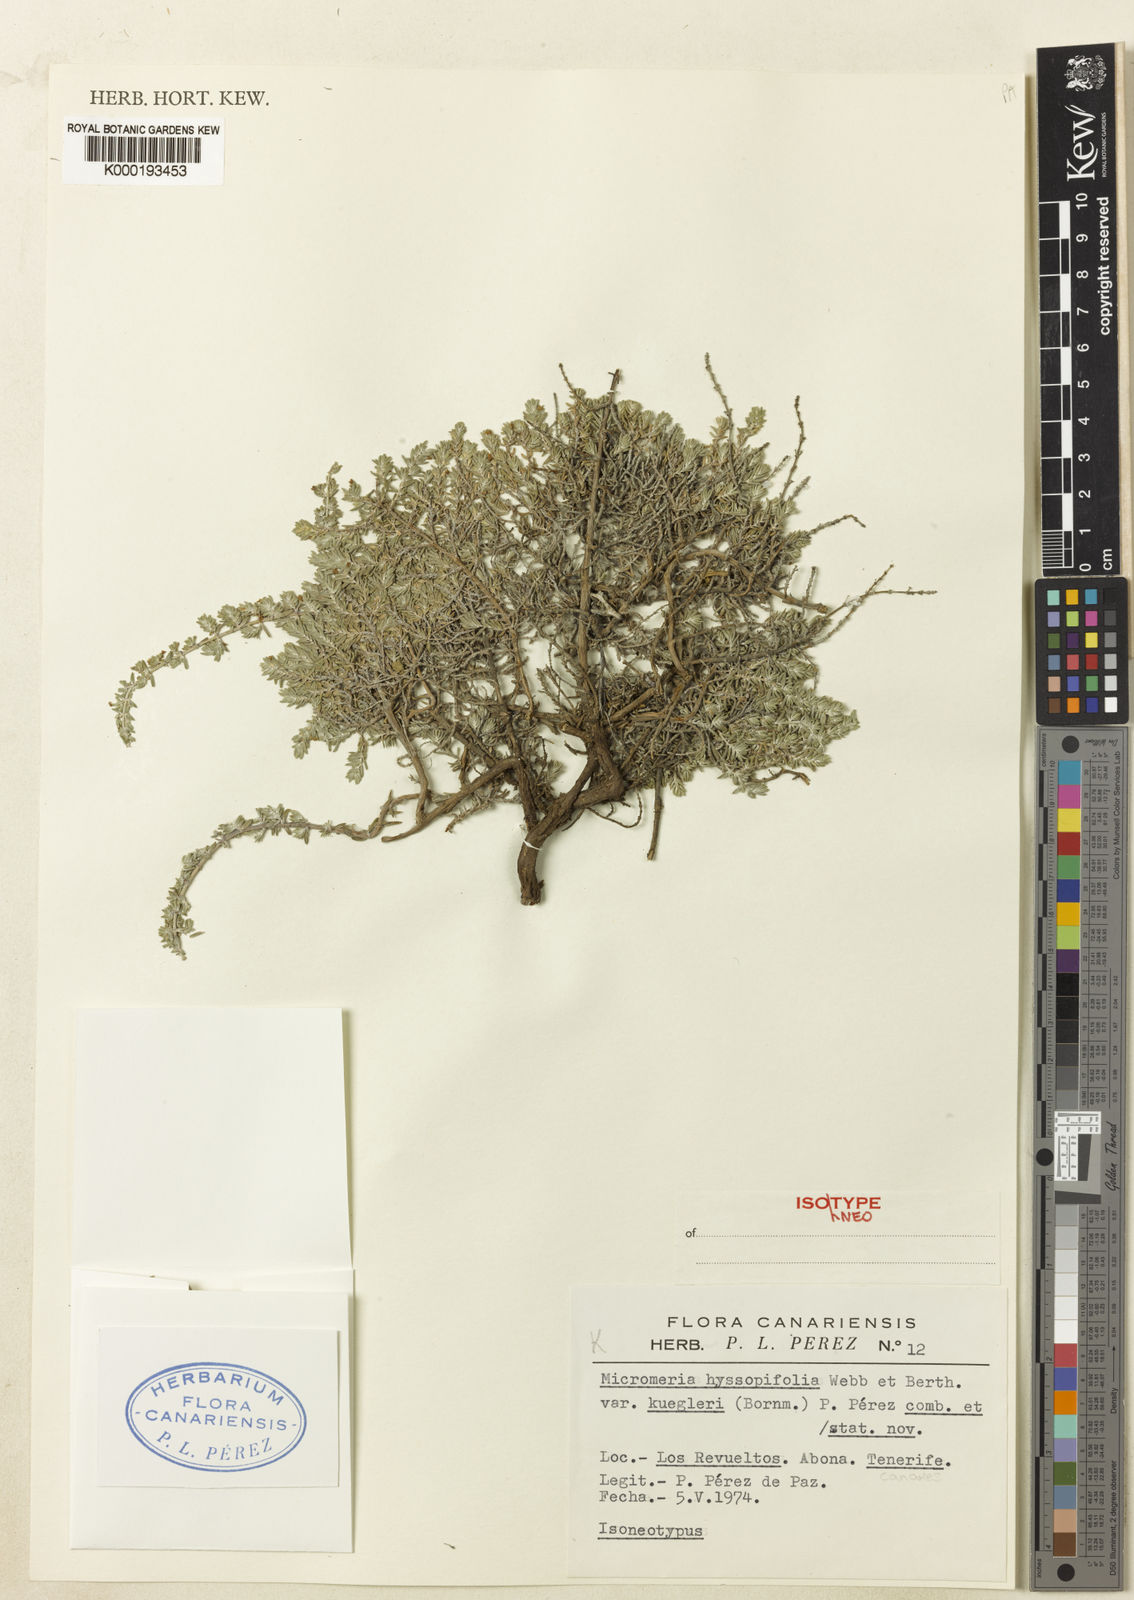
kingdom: Plantae
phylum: Tracheophyta
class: Magnoliopsida
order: Lamiales
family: Lamiaceae
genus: Micromeria
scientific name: Micromeria ericifolia
